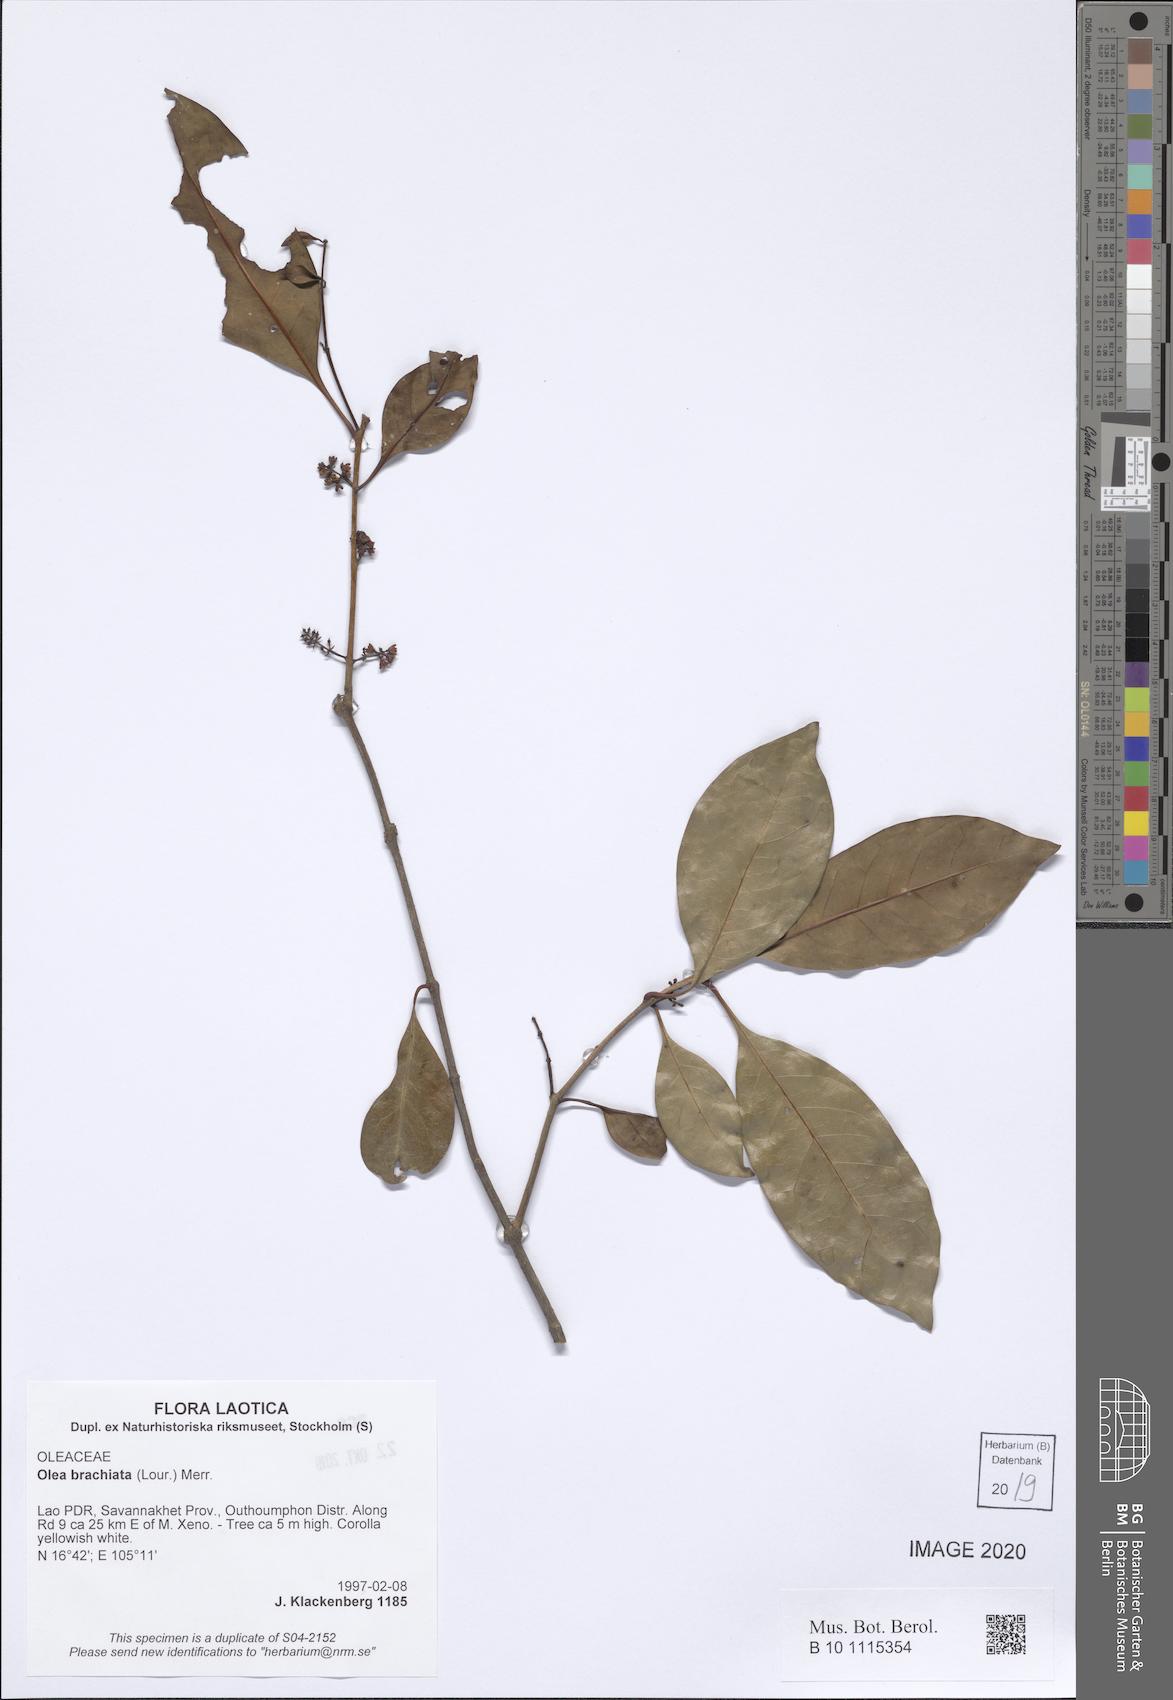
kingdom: Plantae
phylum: Tracheophyta
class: Magnoliopsida
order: Lamiales
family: Oleaceae
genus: Tetrapilus
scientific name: Tetrapilus brachiatus
